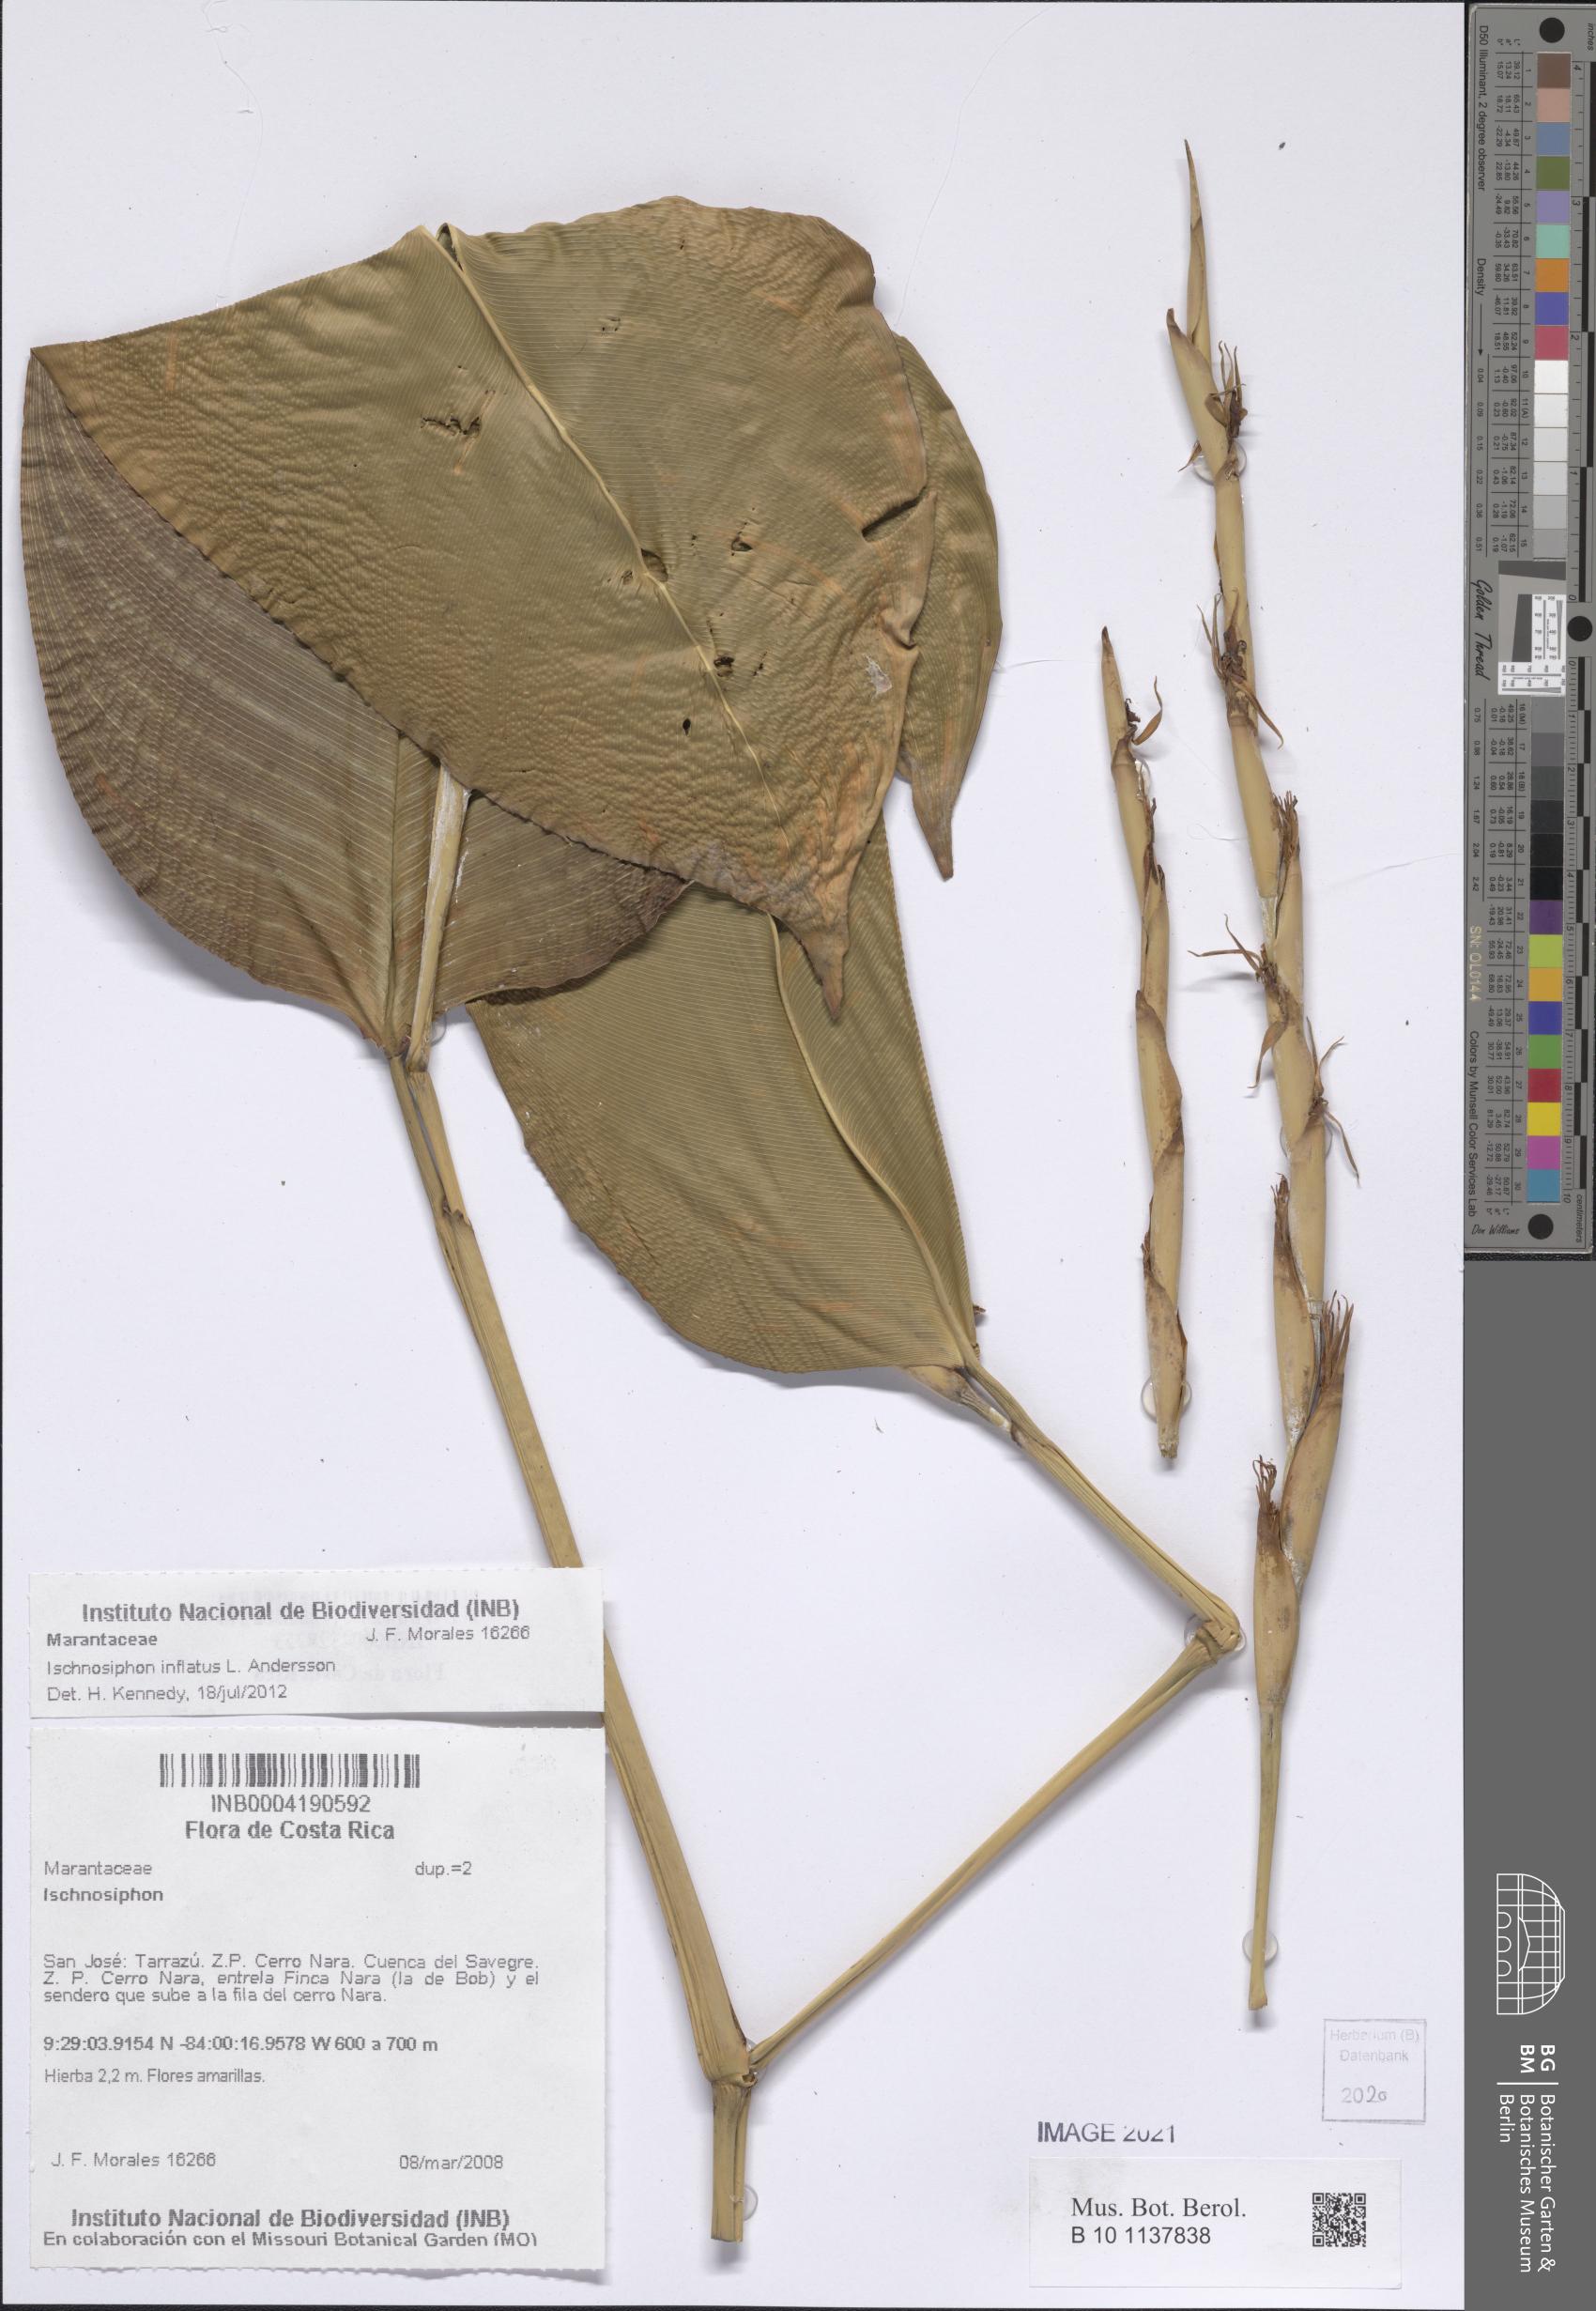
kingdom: Plantae
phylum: Tracheophyta
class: Liliopsida
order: Zingiberales
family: Marantaceae
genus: Ischnosiphon
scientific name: Ischnosiphon inflatus
